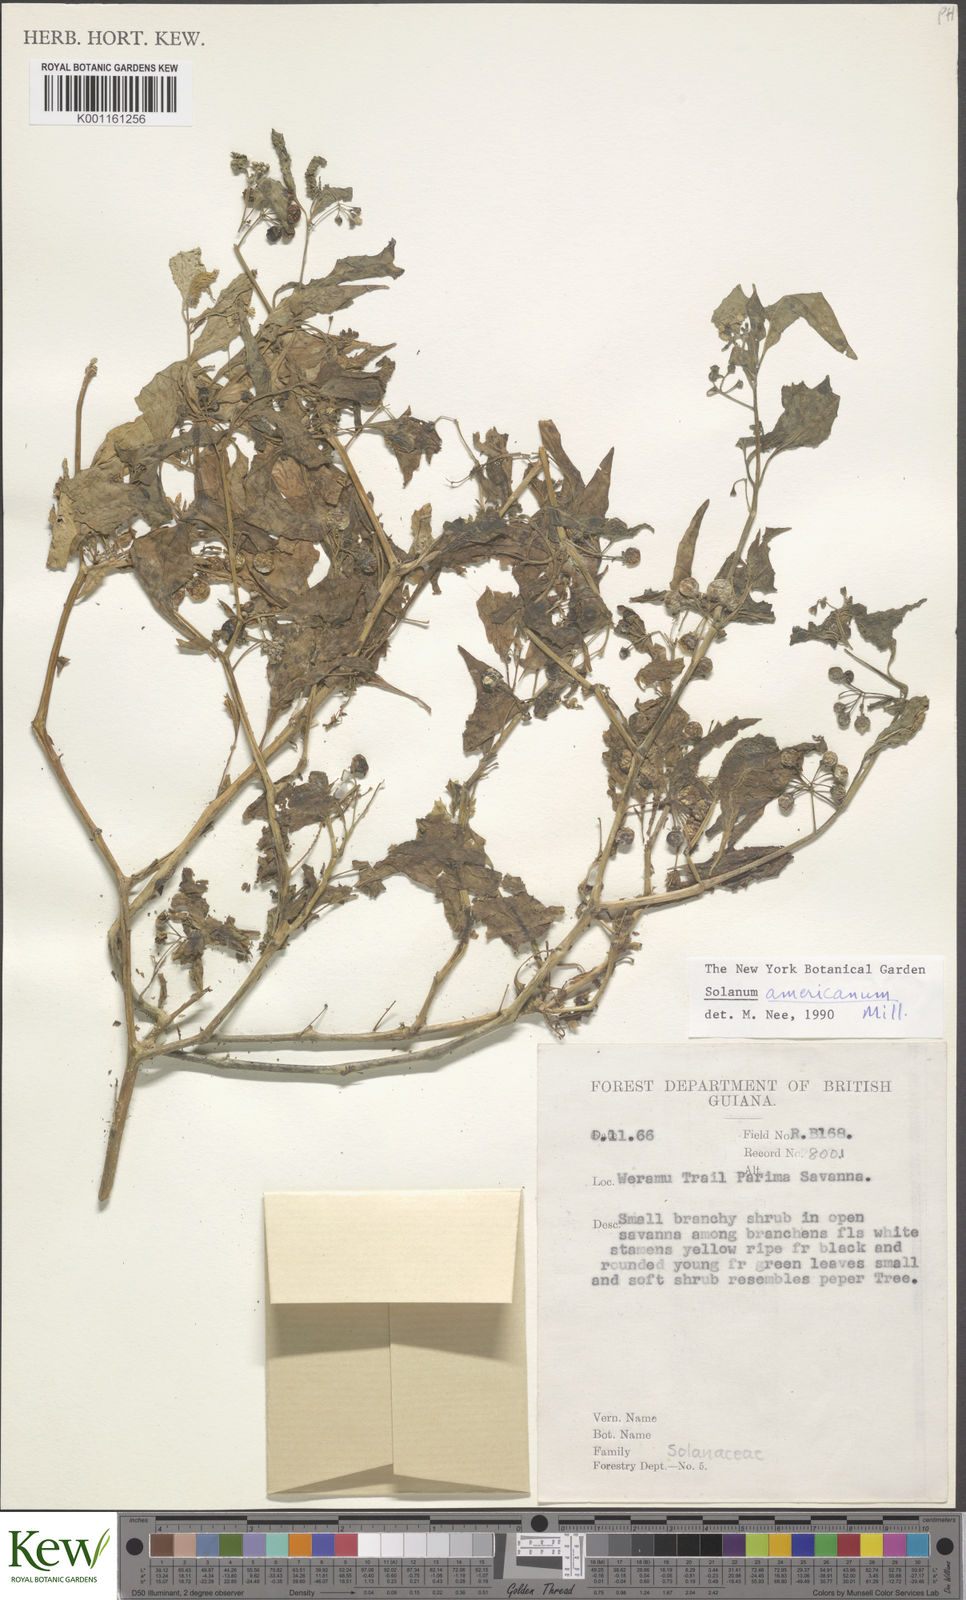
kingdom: Plantae
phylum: Tracheophyta
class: Magnoliopsida
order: Solanales
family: Solanaceae
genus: Solanum
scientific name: Solanum americanum
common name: American black nightshade
